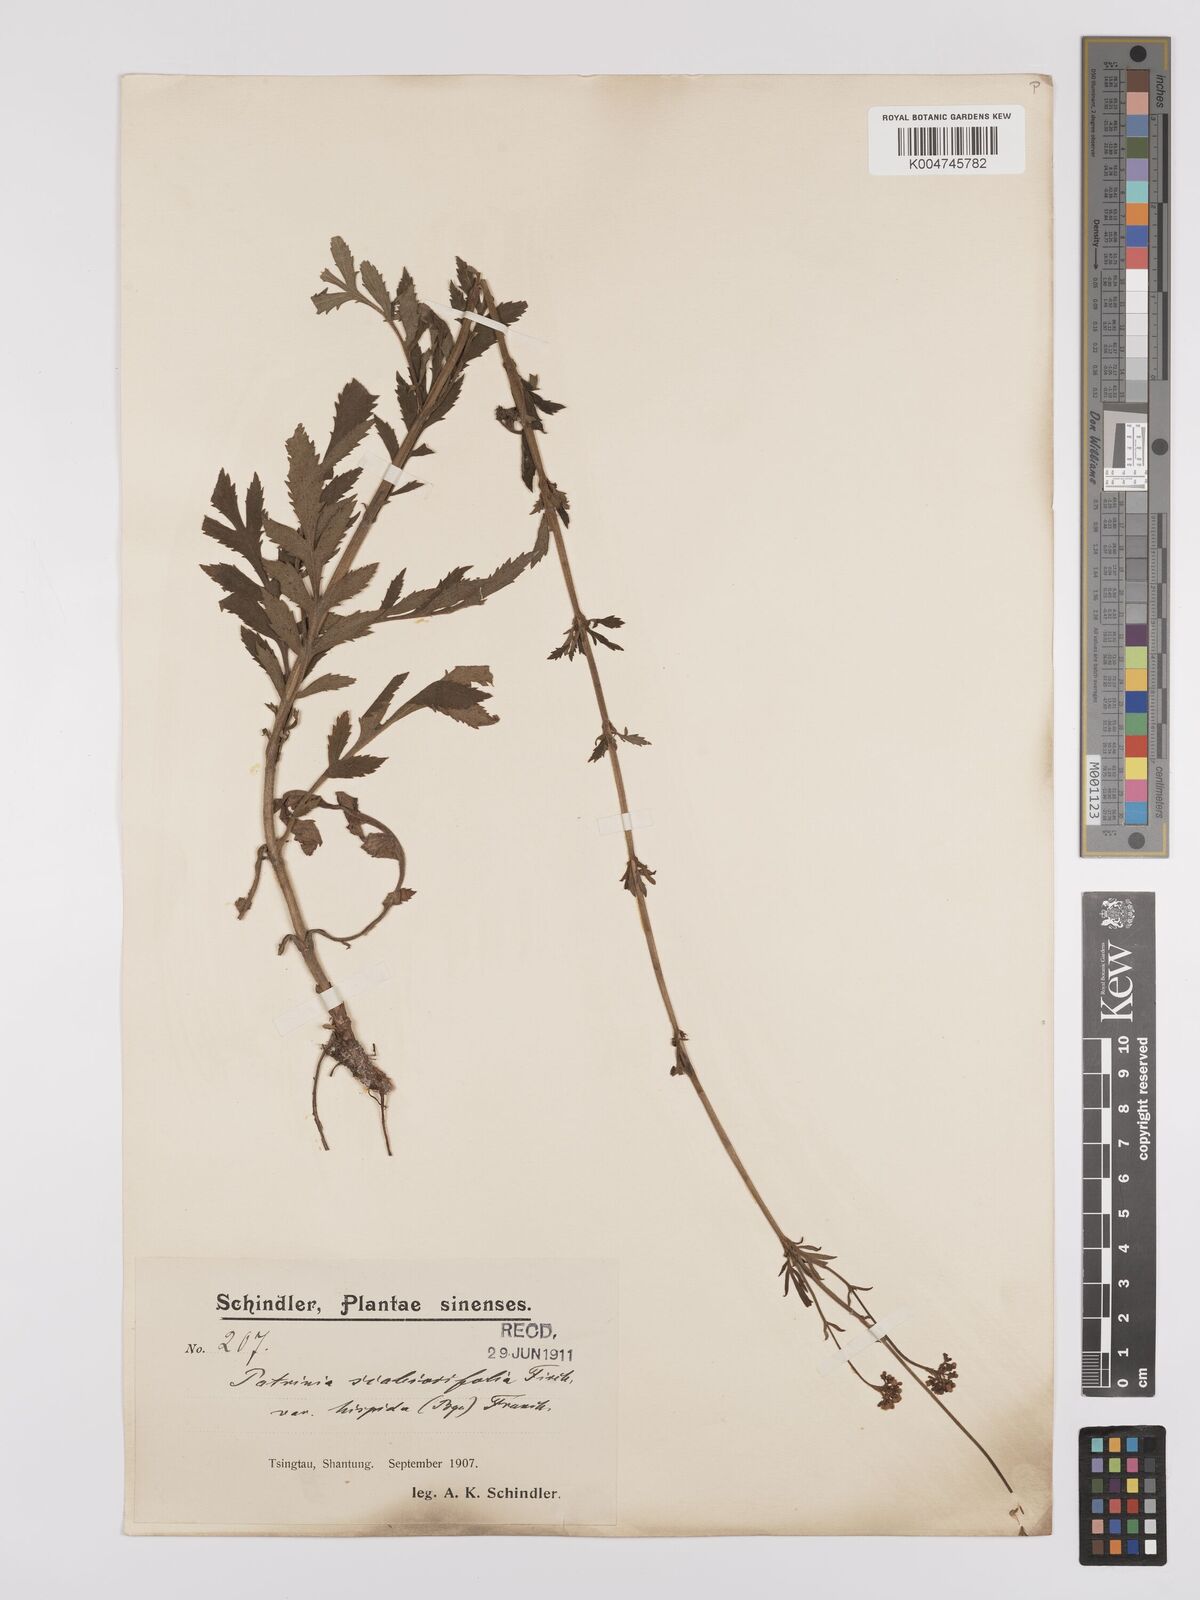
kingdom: Plantae
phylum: Tracheophyta
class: Magnoliopsida
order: Dipsacales
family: Caprifoliaceae
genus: Patrinia
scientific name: Patrinia scabiosifolia
